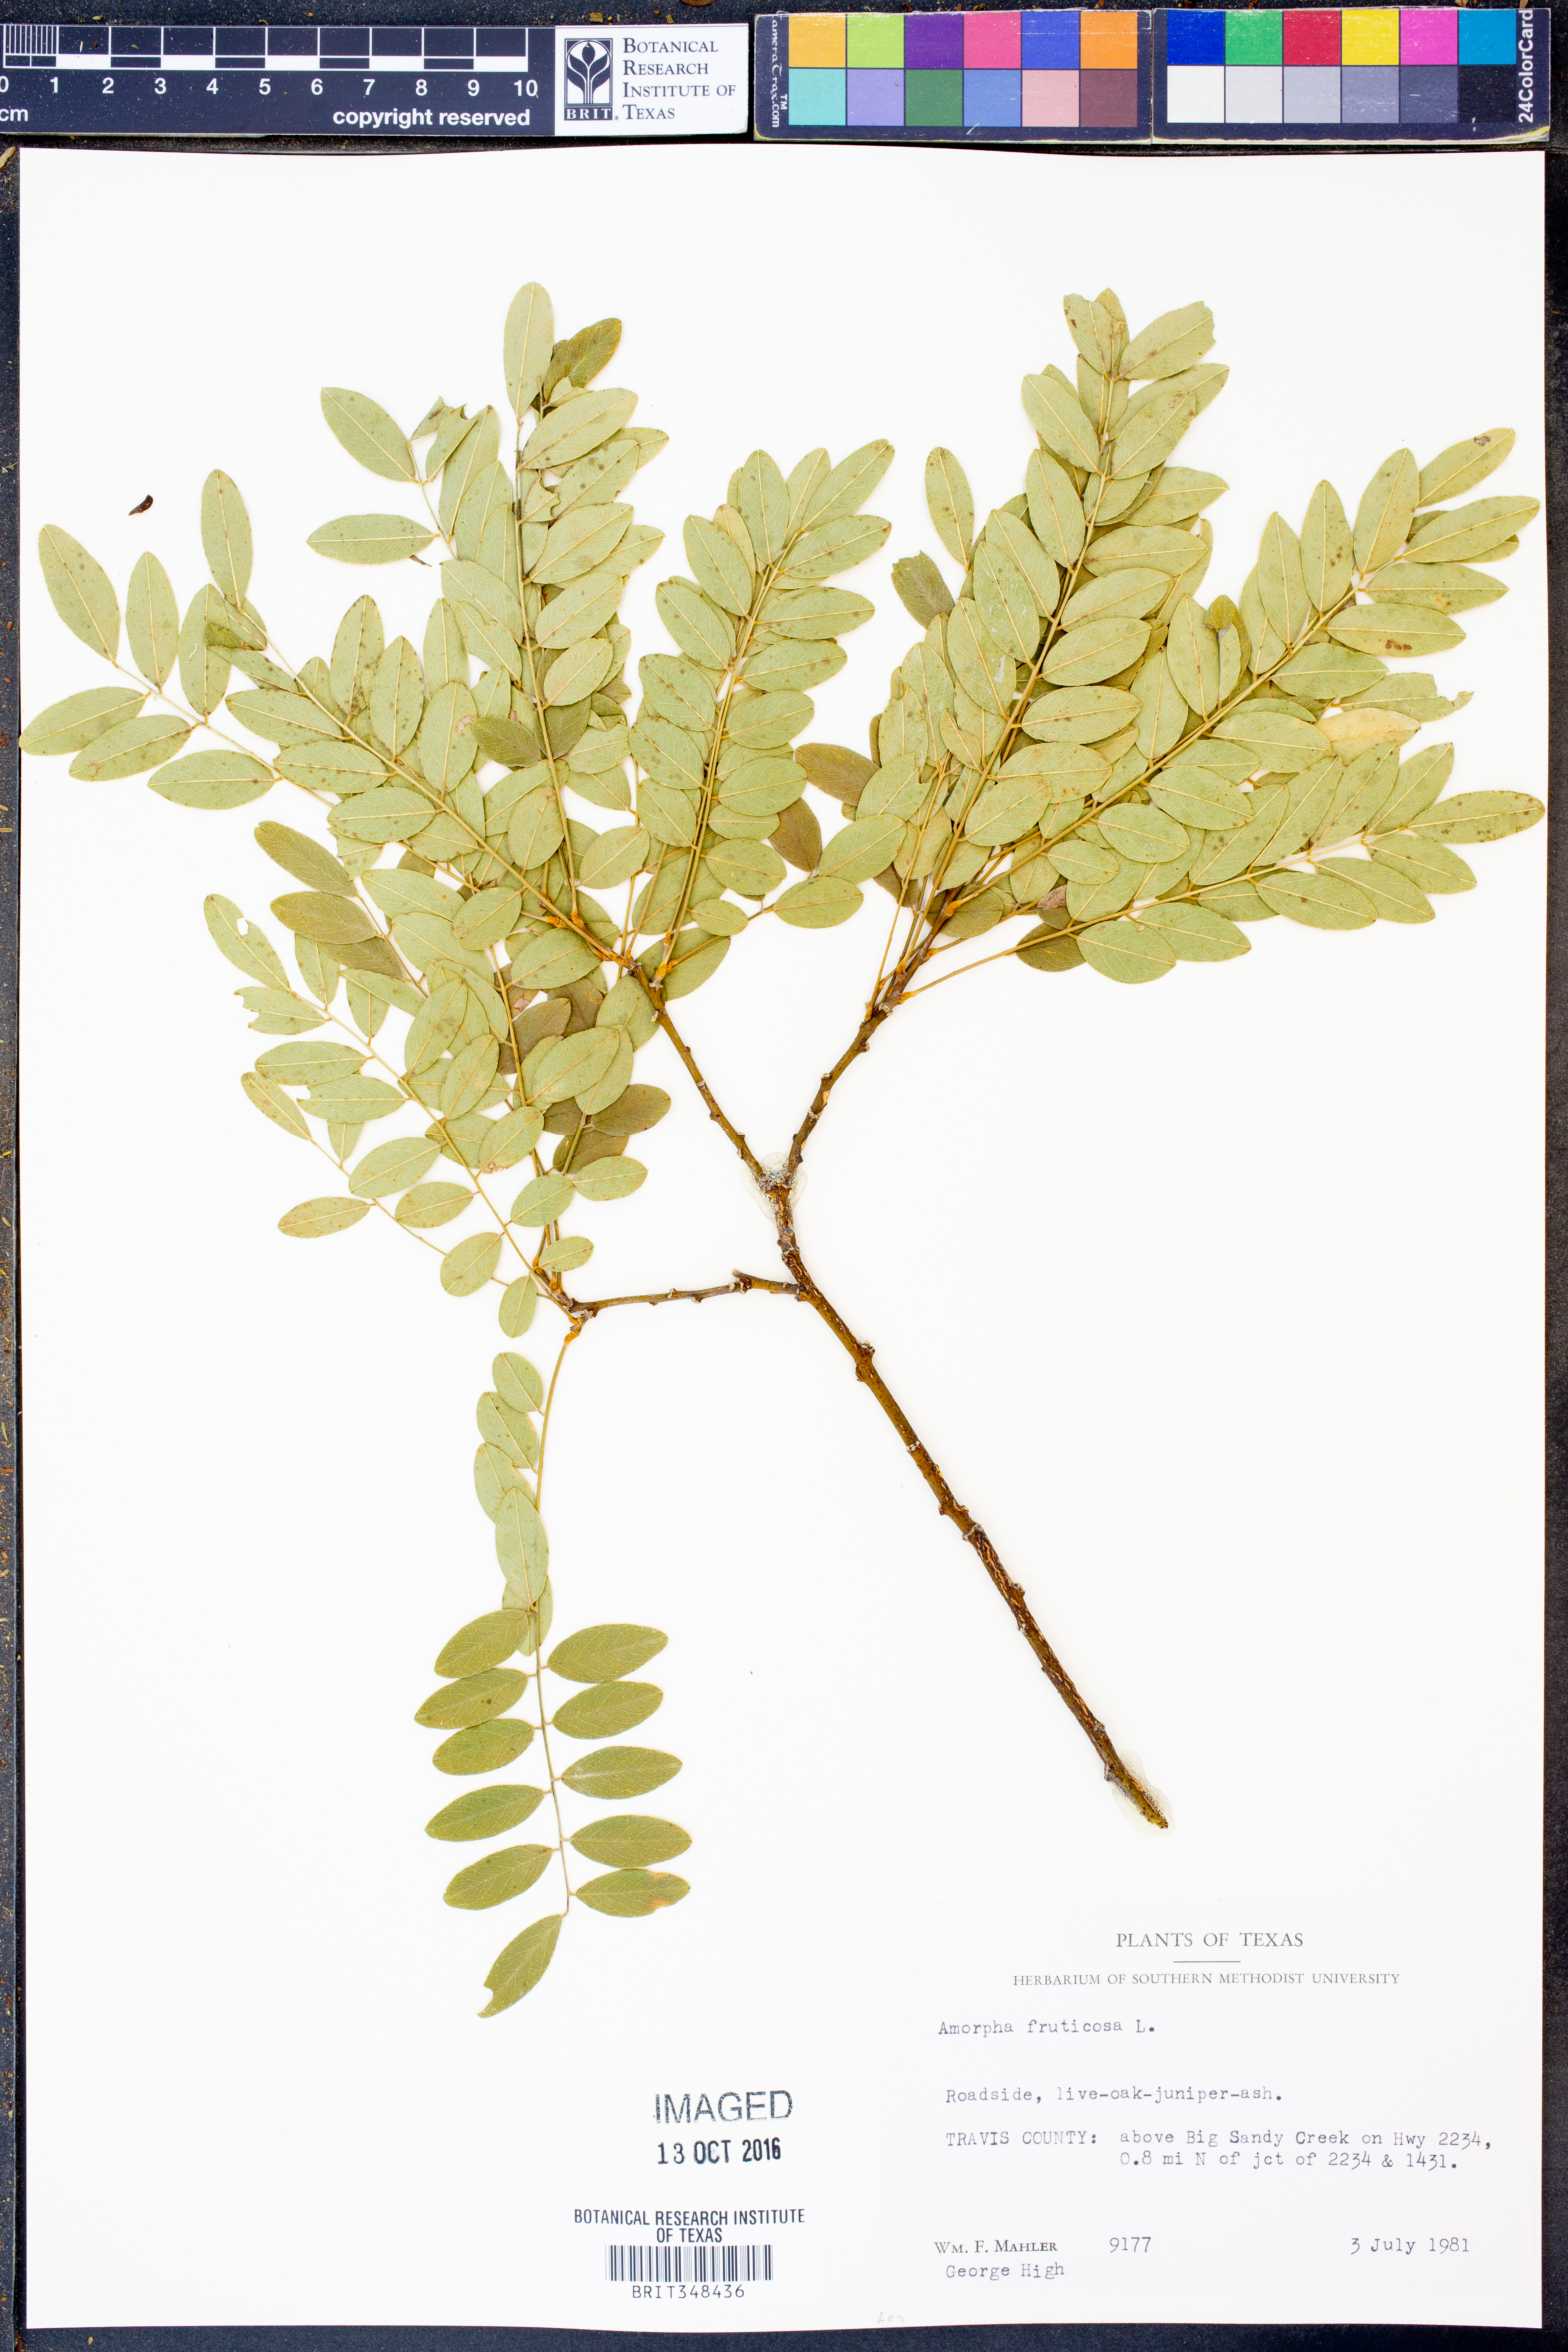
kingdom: Plantae
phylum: Tracheophyta
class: Magnoliopsida
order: Fabales
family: Fabaceae
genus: Amorpha
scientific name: Amorpha fruticosa
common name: False indigo
